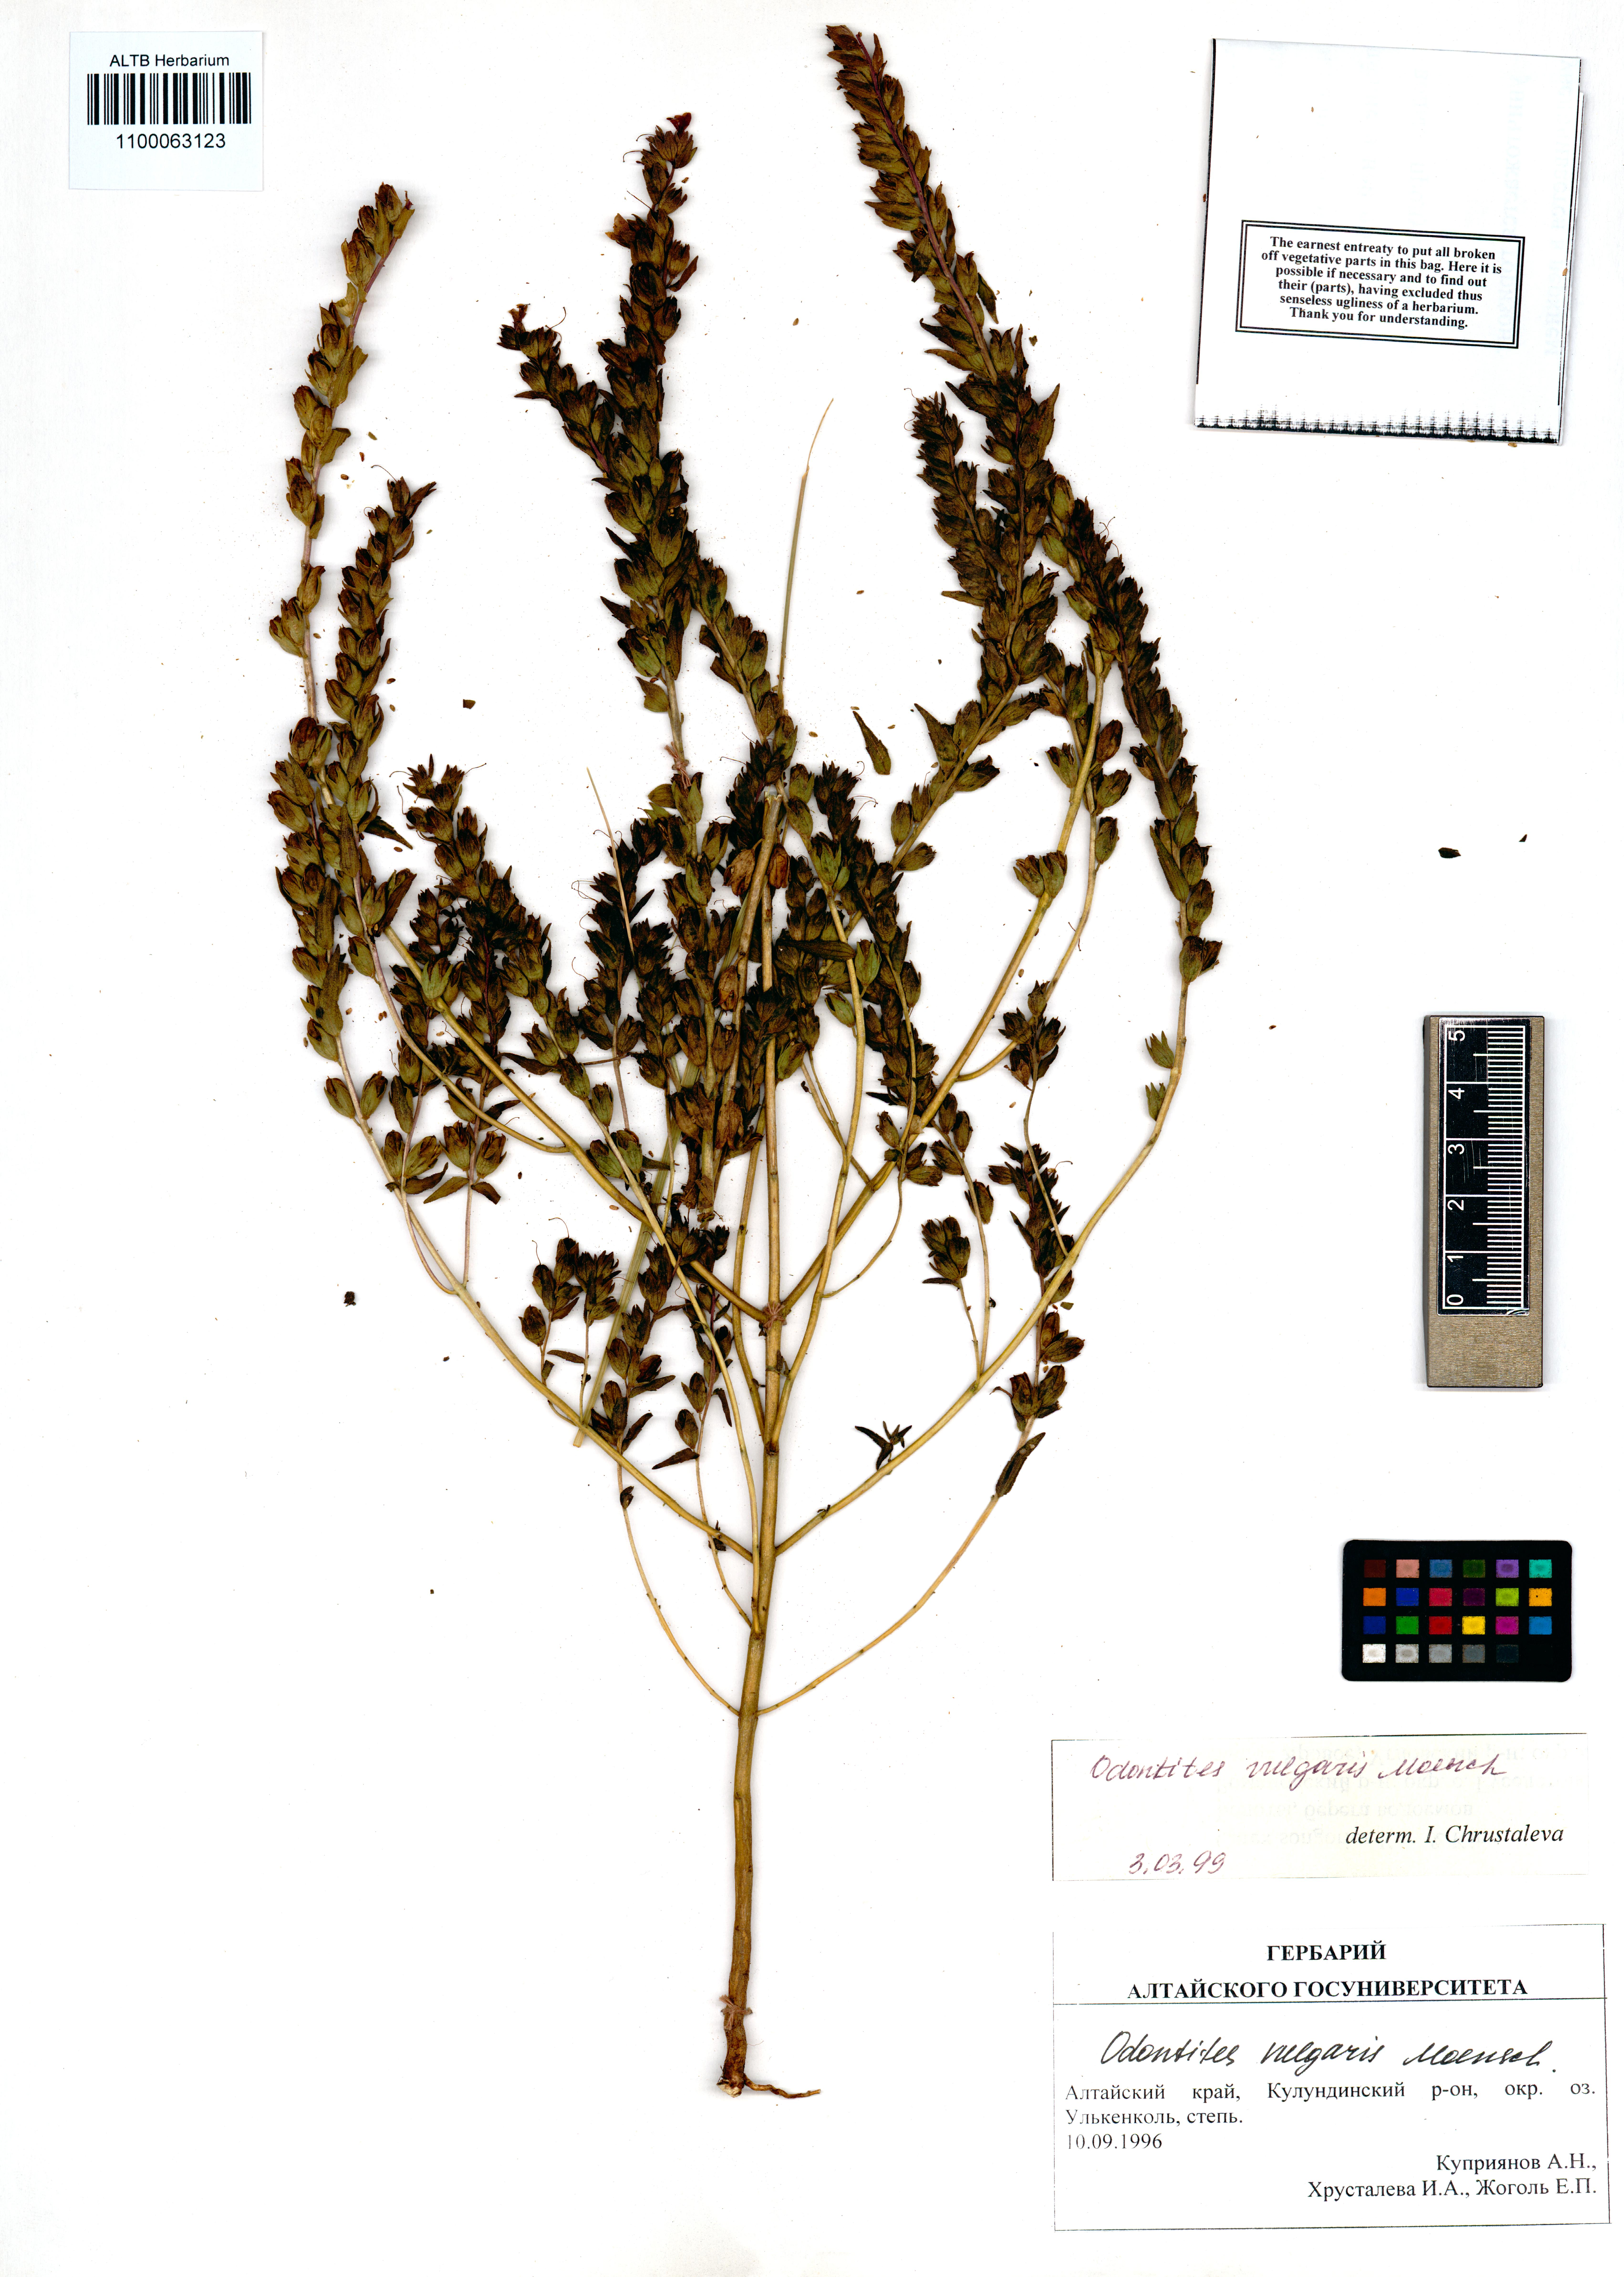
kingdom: Plantae
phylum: Tracheophyta
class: Magnoliopsida
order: Lamiales
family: Orobanchaceae
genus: Odontites
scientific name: Odontites vulgaris
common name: Broomrape
